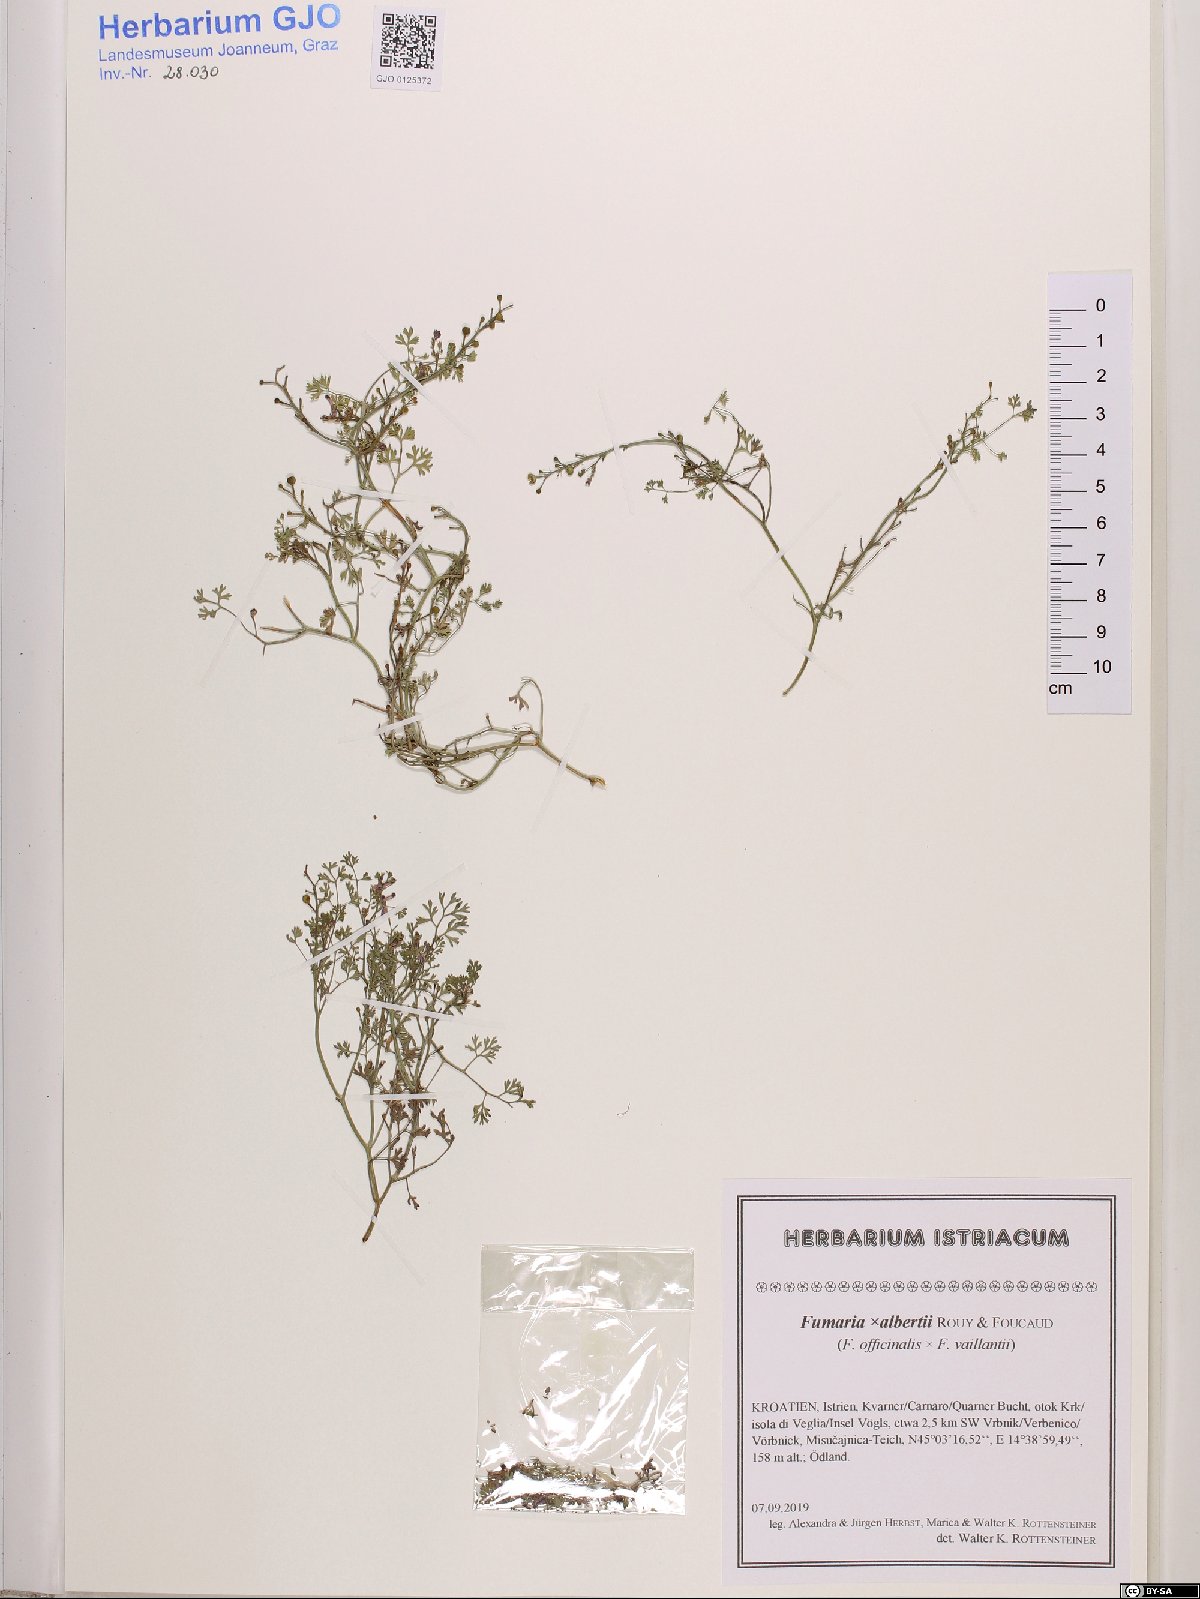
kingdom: Plantae
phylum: Tracheophyta
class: Magnoliopsida
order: Ranunculales
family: Papaveraceae
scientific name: Papaveraceae
